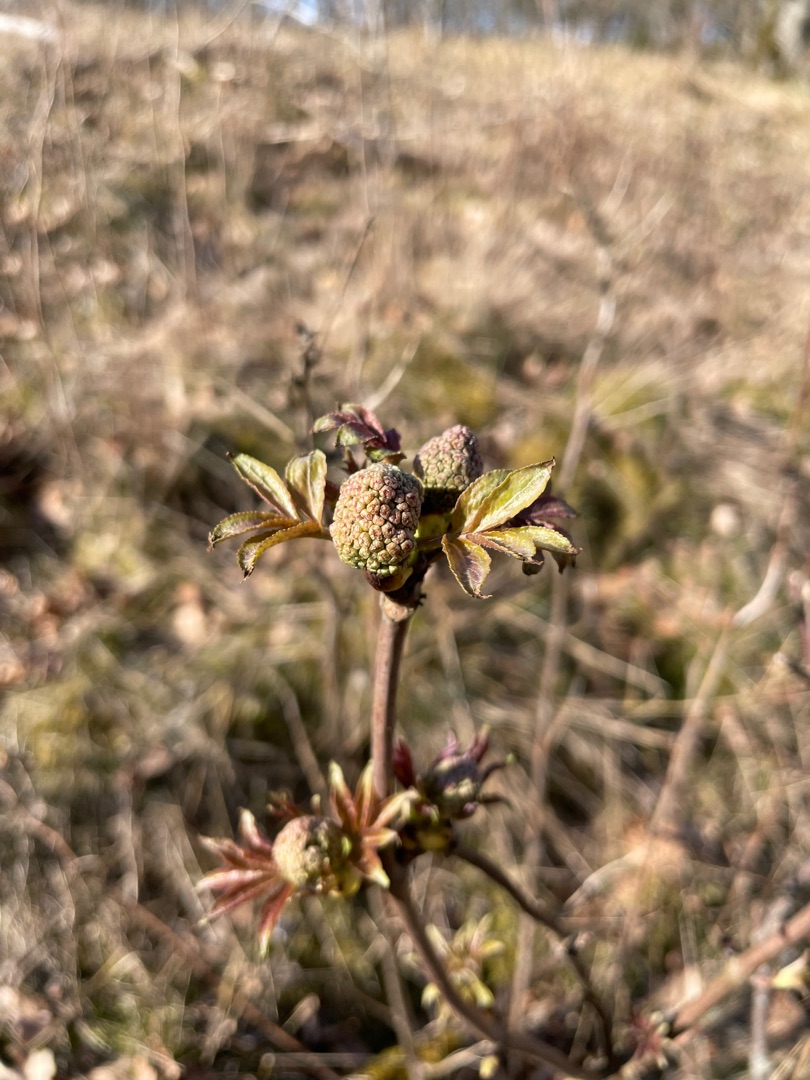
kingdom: Plantae
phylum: Tracheophyta
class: Magnoliopsida
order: Dipsacales
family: Viburnaceae
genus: Sambucus
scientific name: Sambucus racemosa
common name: Drue-hyld
